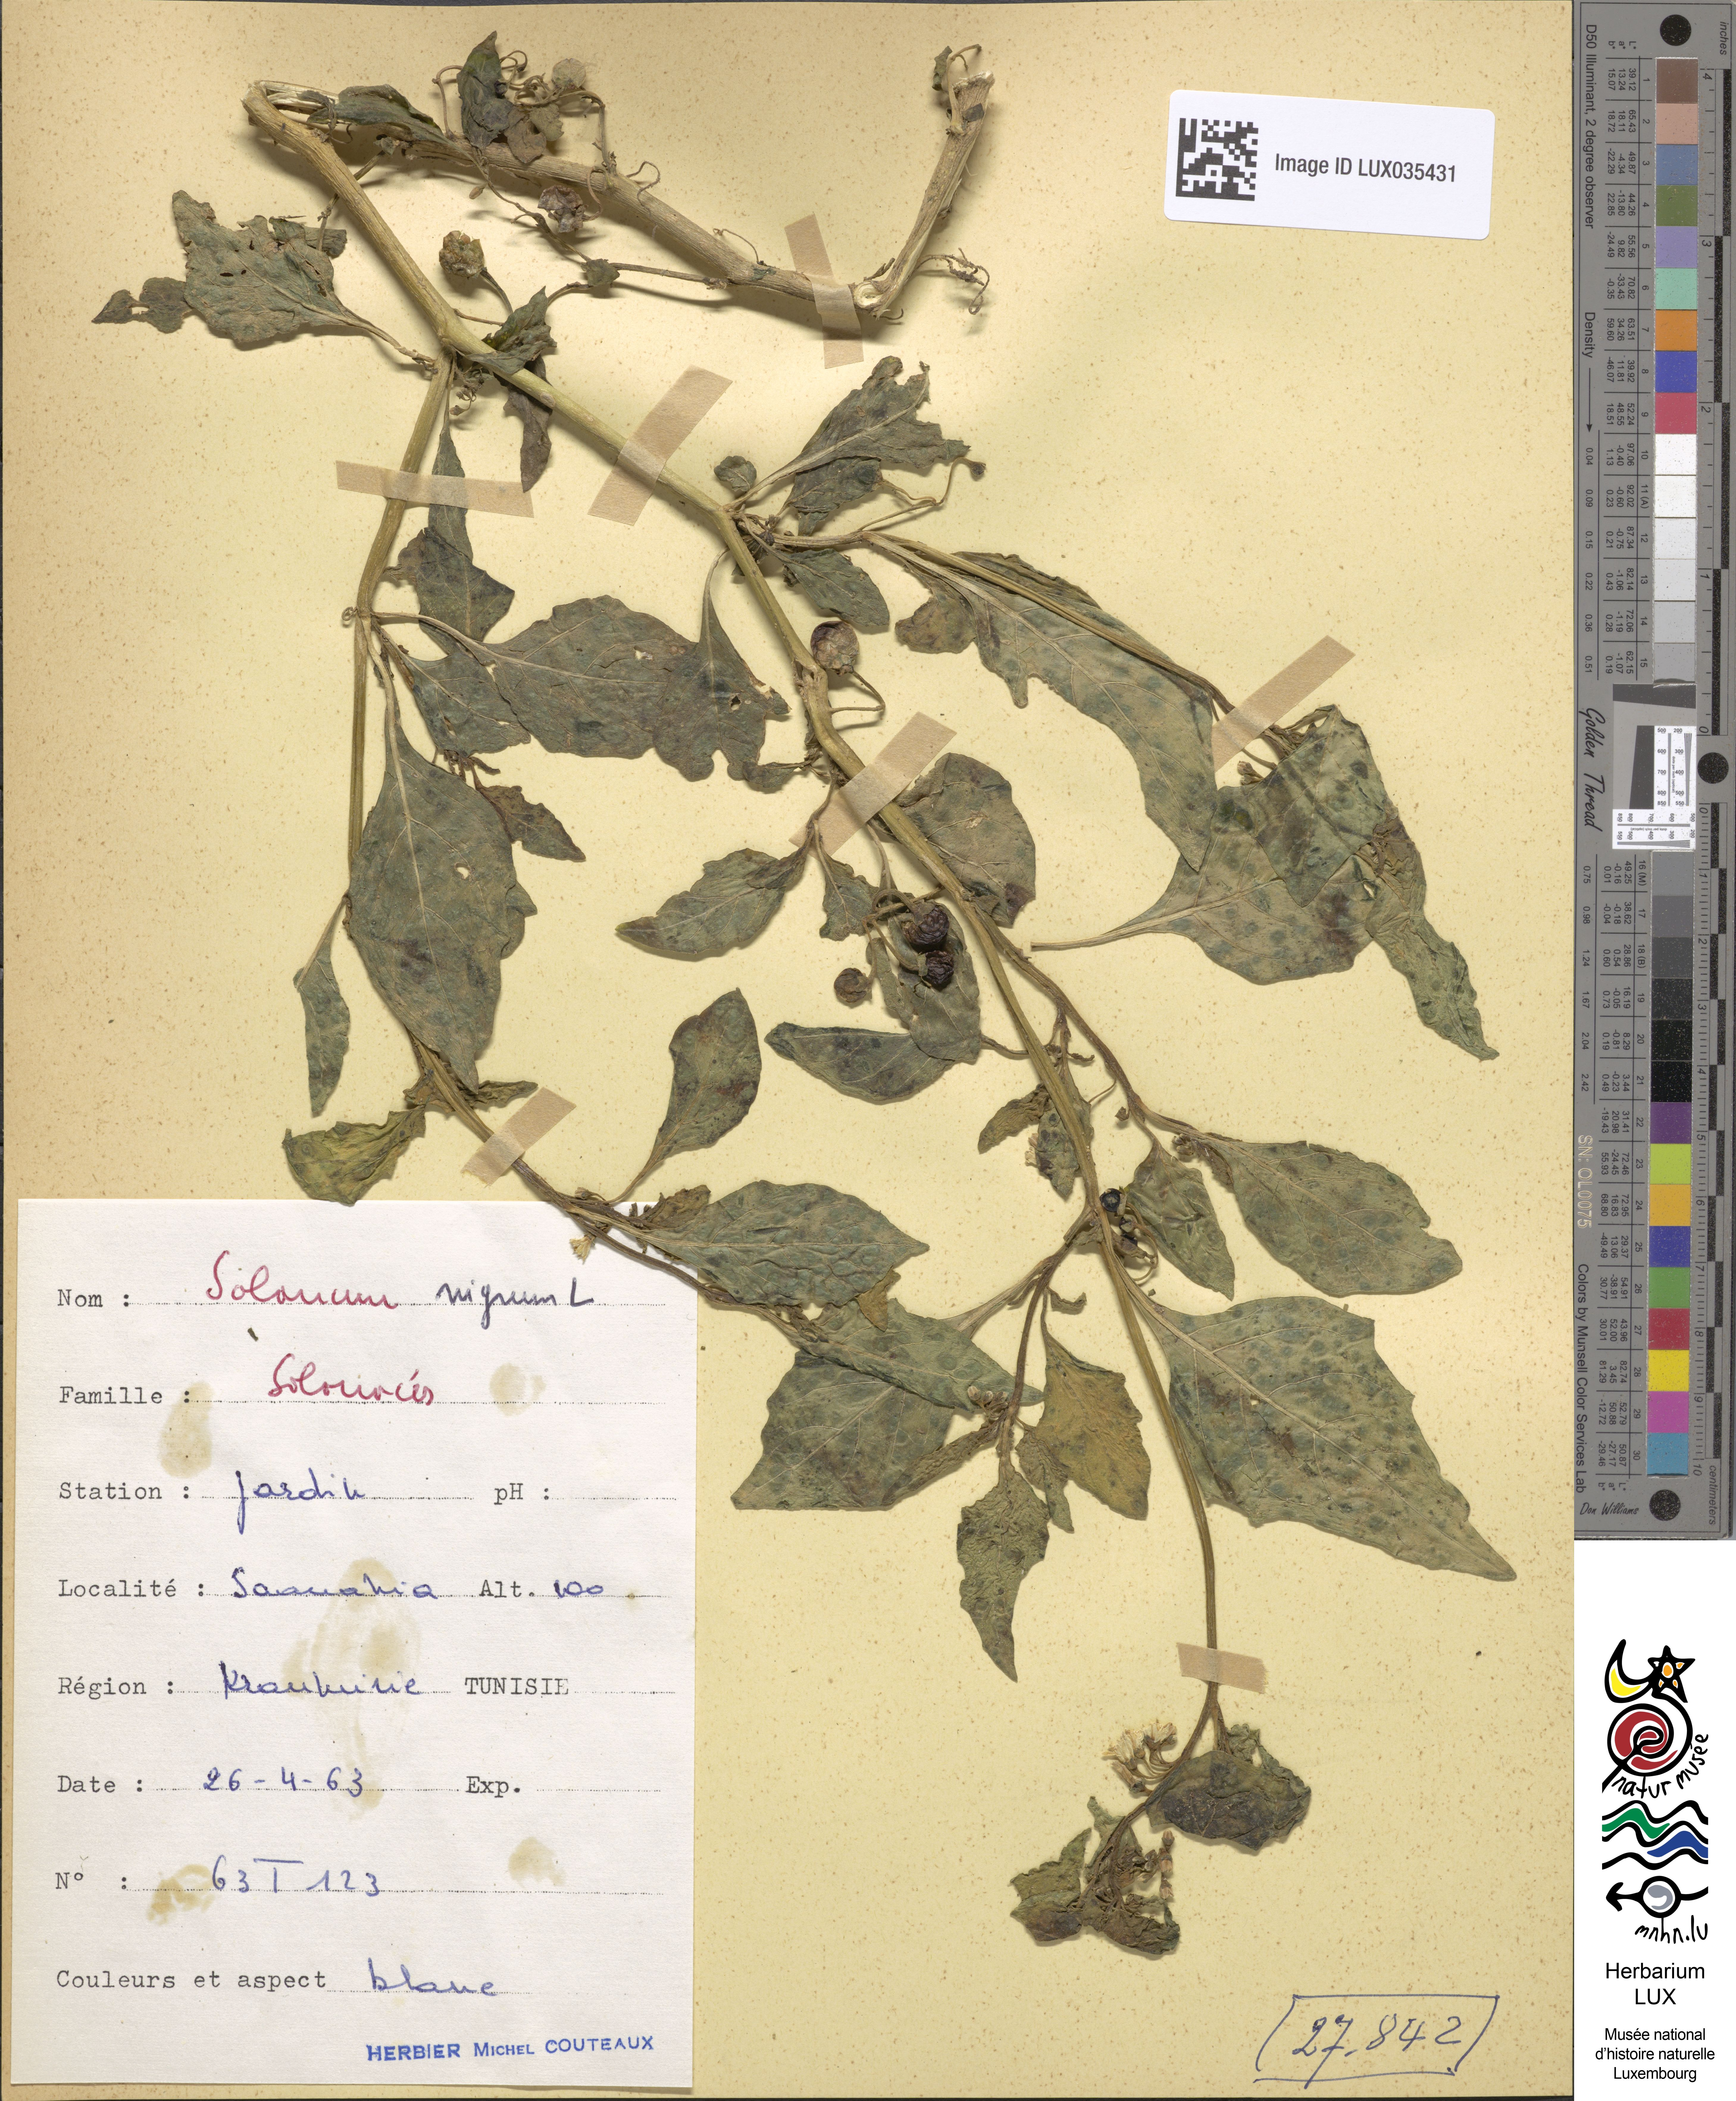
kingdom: Plantae
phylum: Tracheophyta
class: Magnoliopsida
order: Solanales
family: Solanaceae
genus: Solanum
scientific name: Solanum nigrum
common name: Black nightshade
